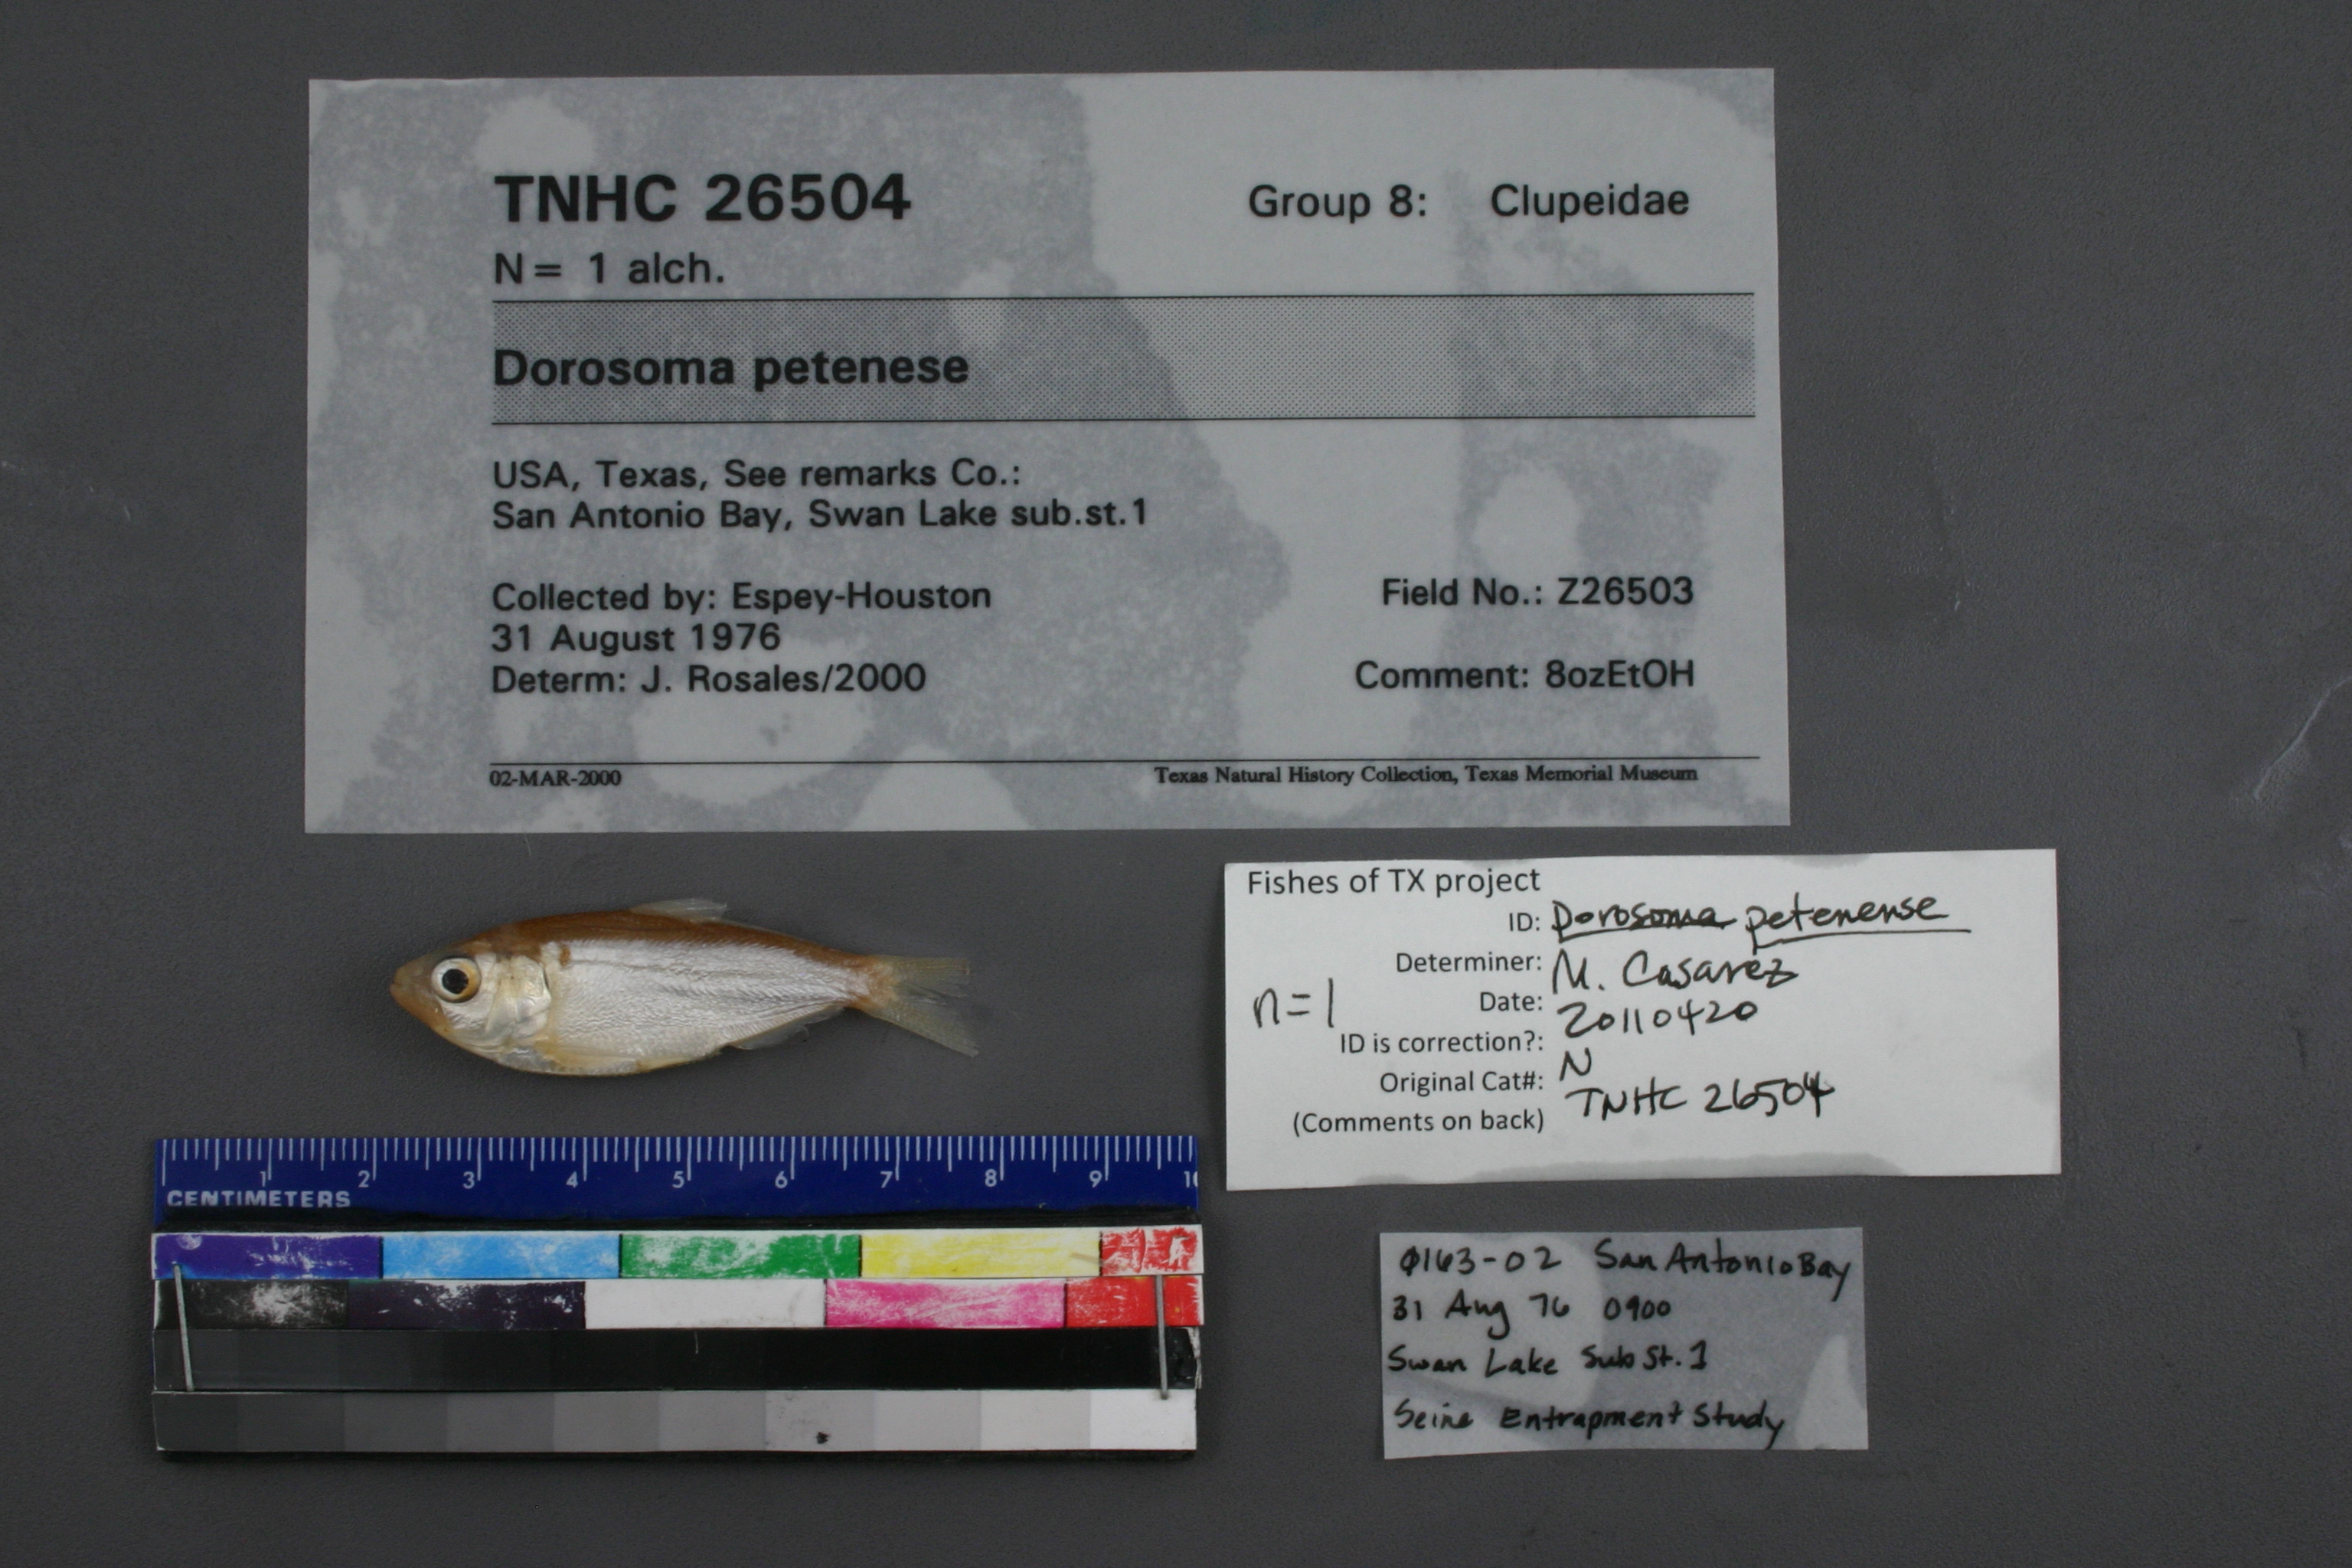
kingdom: Animalia
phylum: Chordata
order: Clupeiformes
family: Clupeidae
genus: Dorosoma
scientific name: Dorosoma petenense
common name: Threadfin shad
